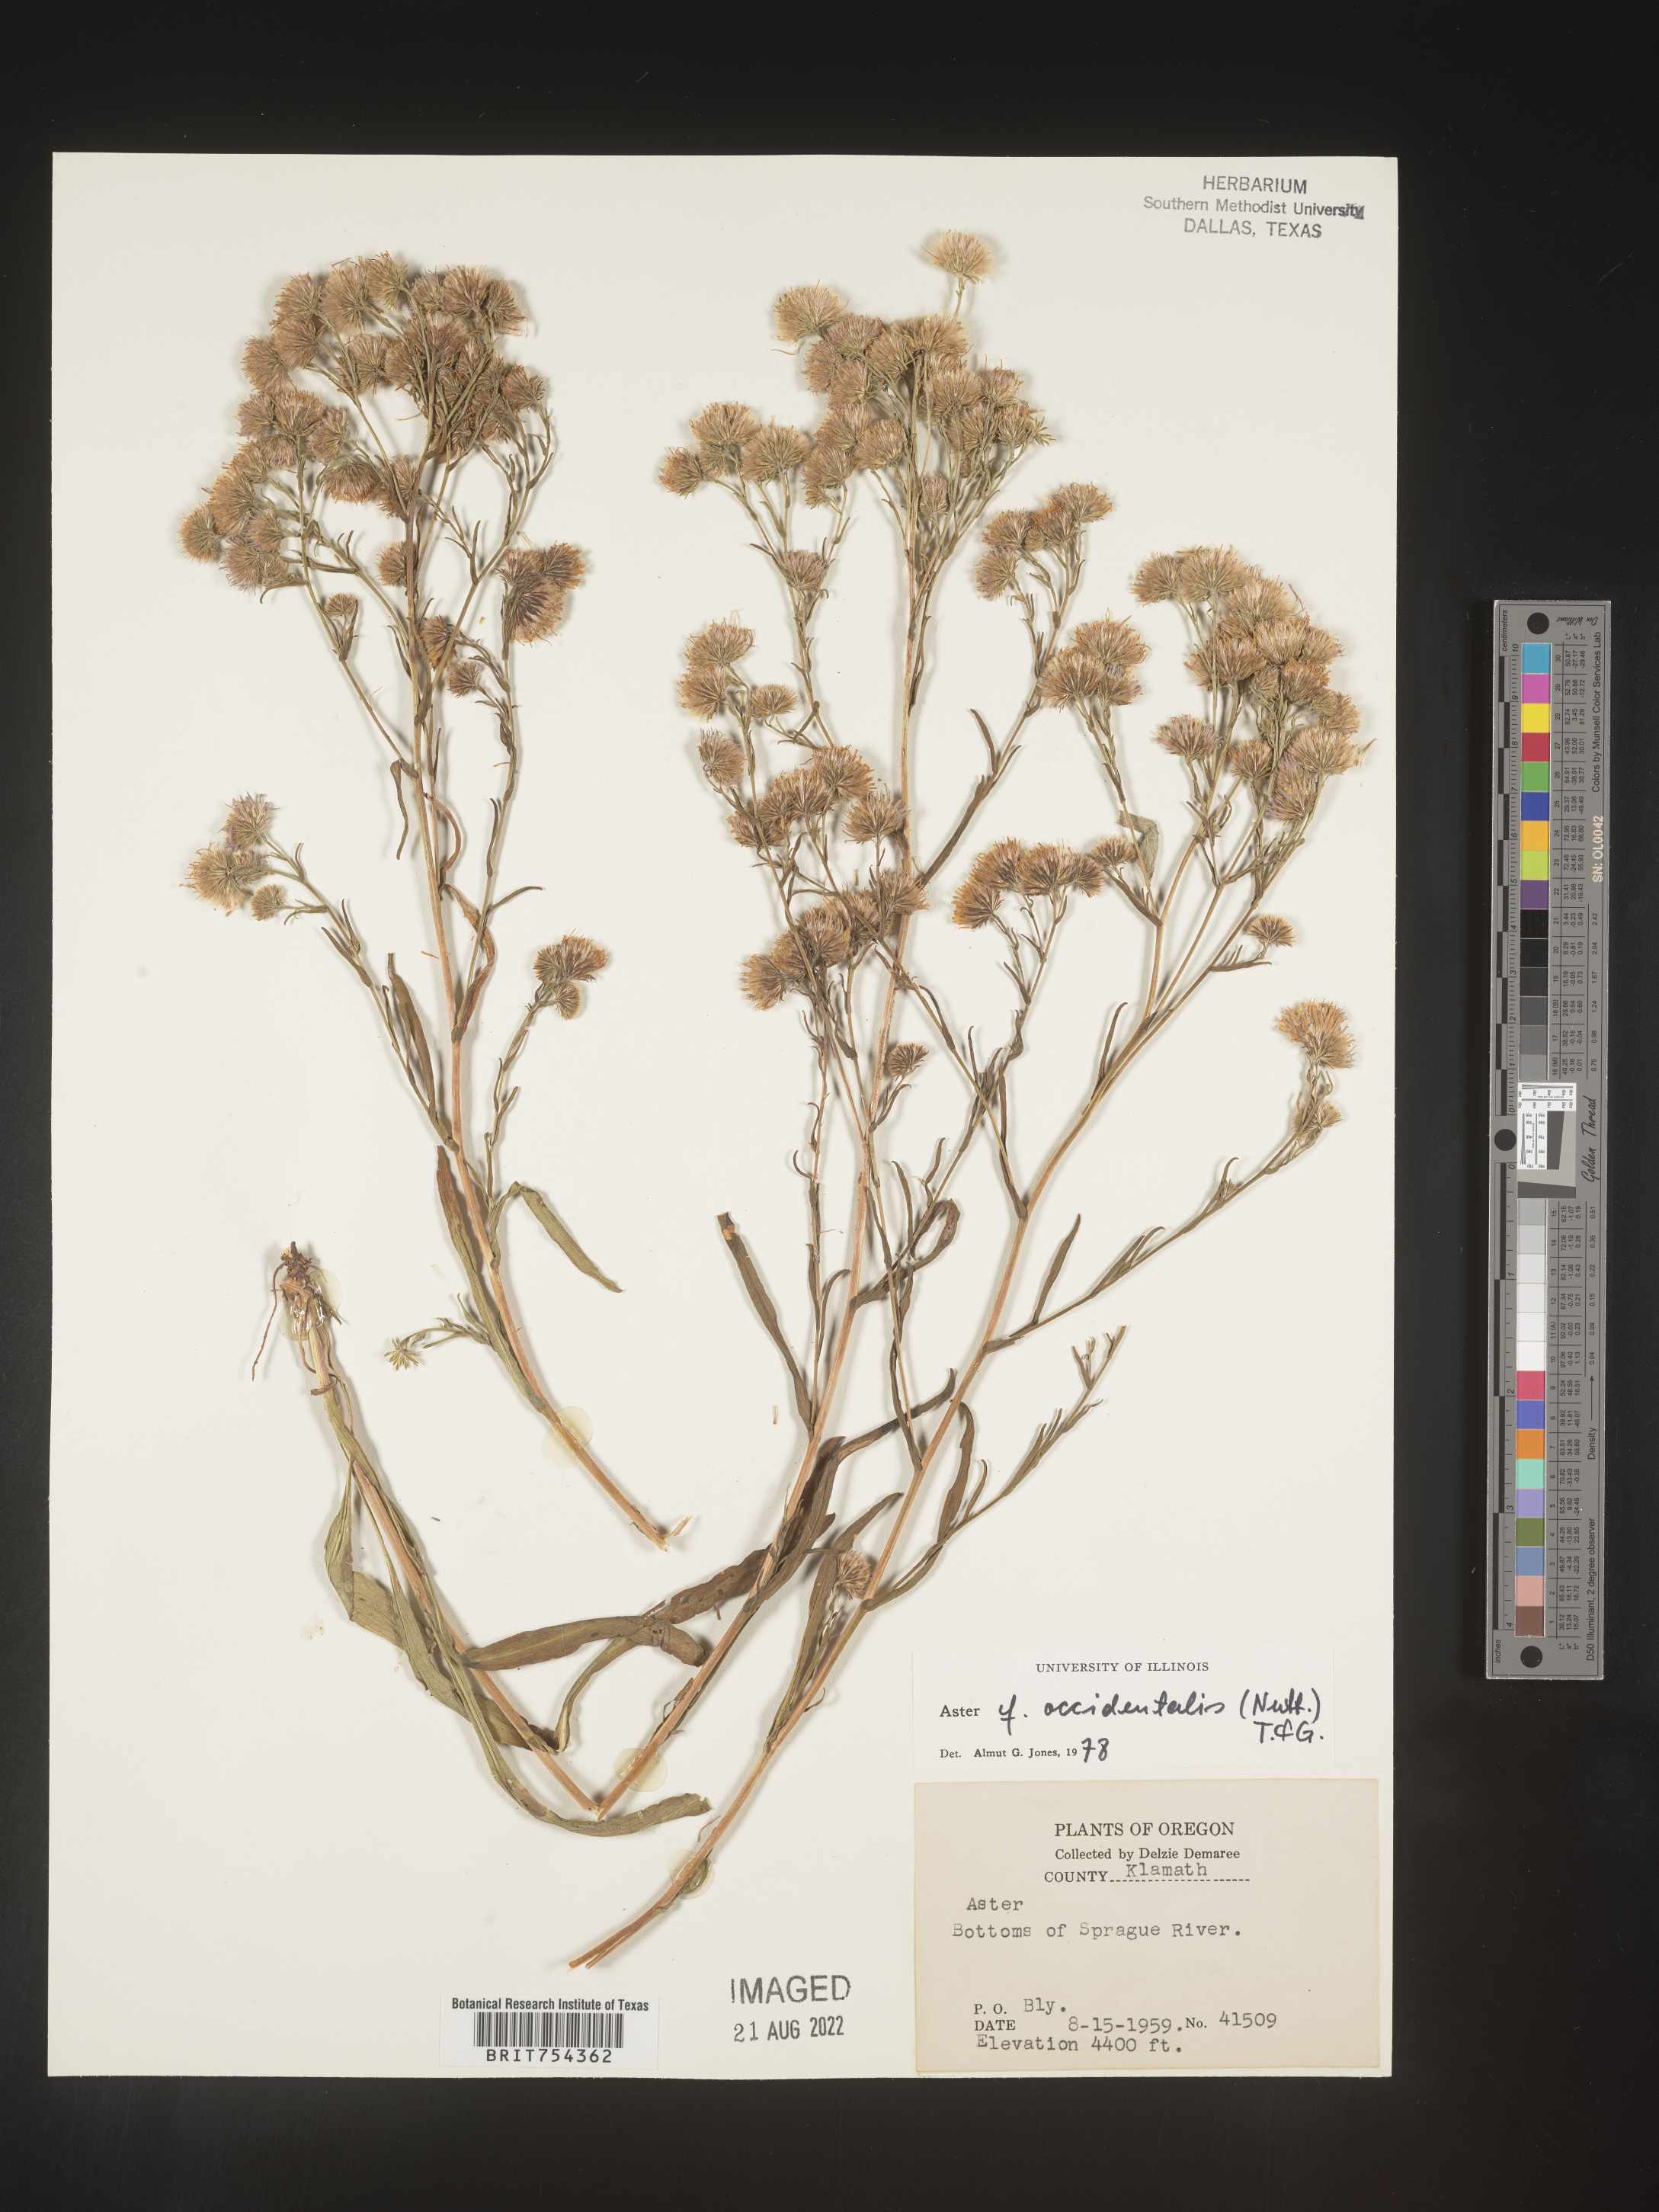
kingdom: Plantae
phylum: Tracheophyta
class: Magnoliopsida
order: Asterales
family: Asteraceae
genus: Symphyotrichum
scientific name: Symphyotrichum spathulatum
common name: Western mountain aster
